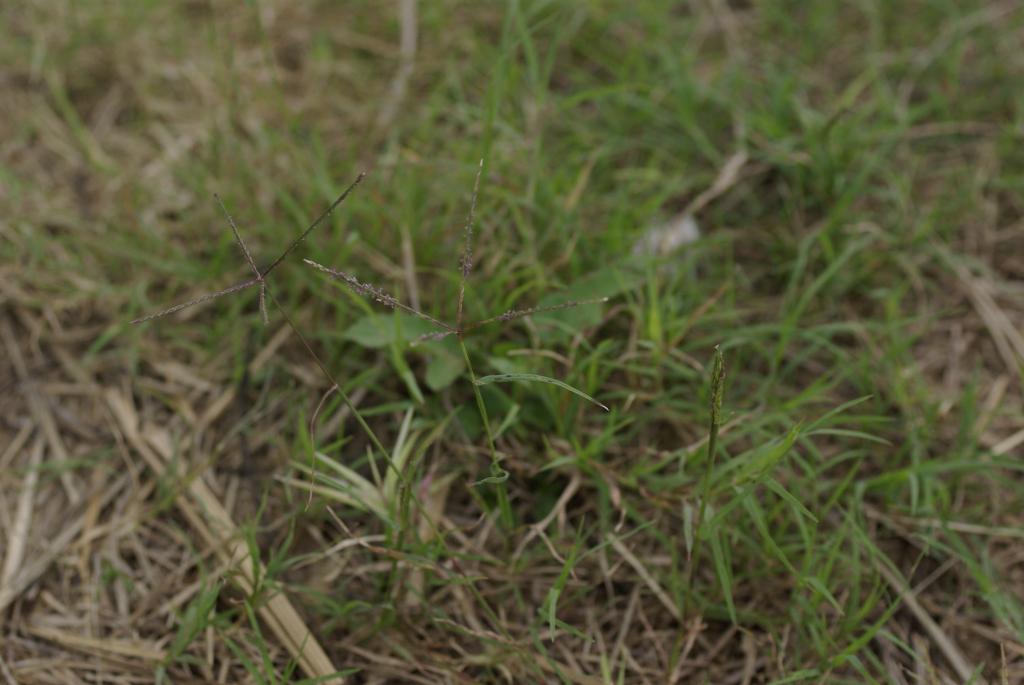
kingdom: Plantae
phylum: Tracheophyta
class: Liliopsida
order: Poales
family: Poaceae
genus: Cynodon
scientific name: Cynodon dactylon
